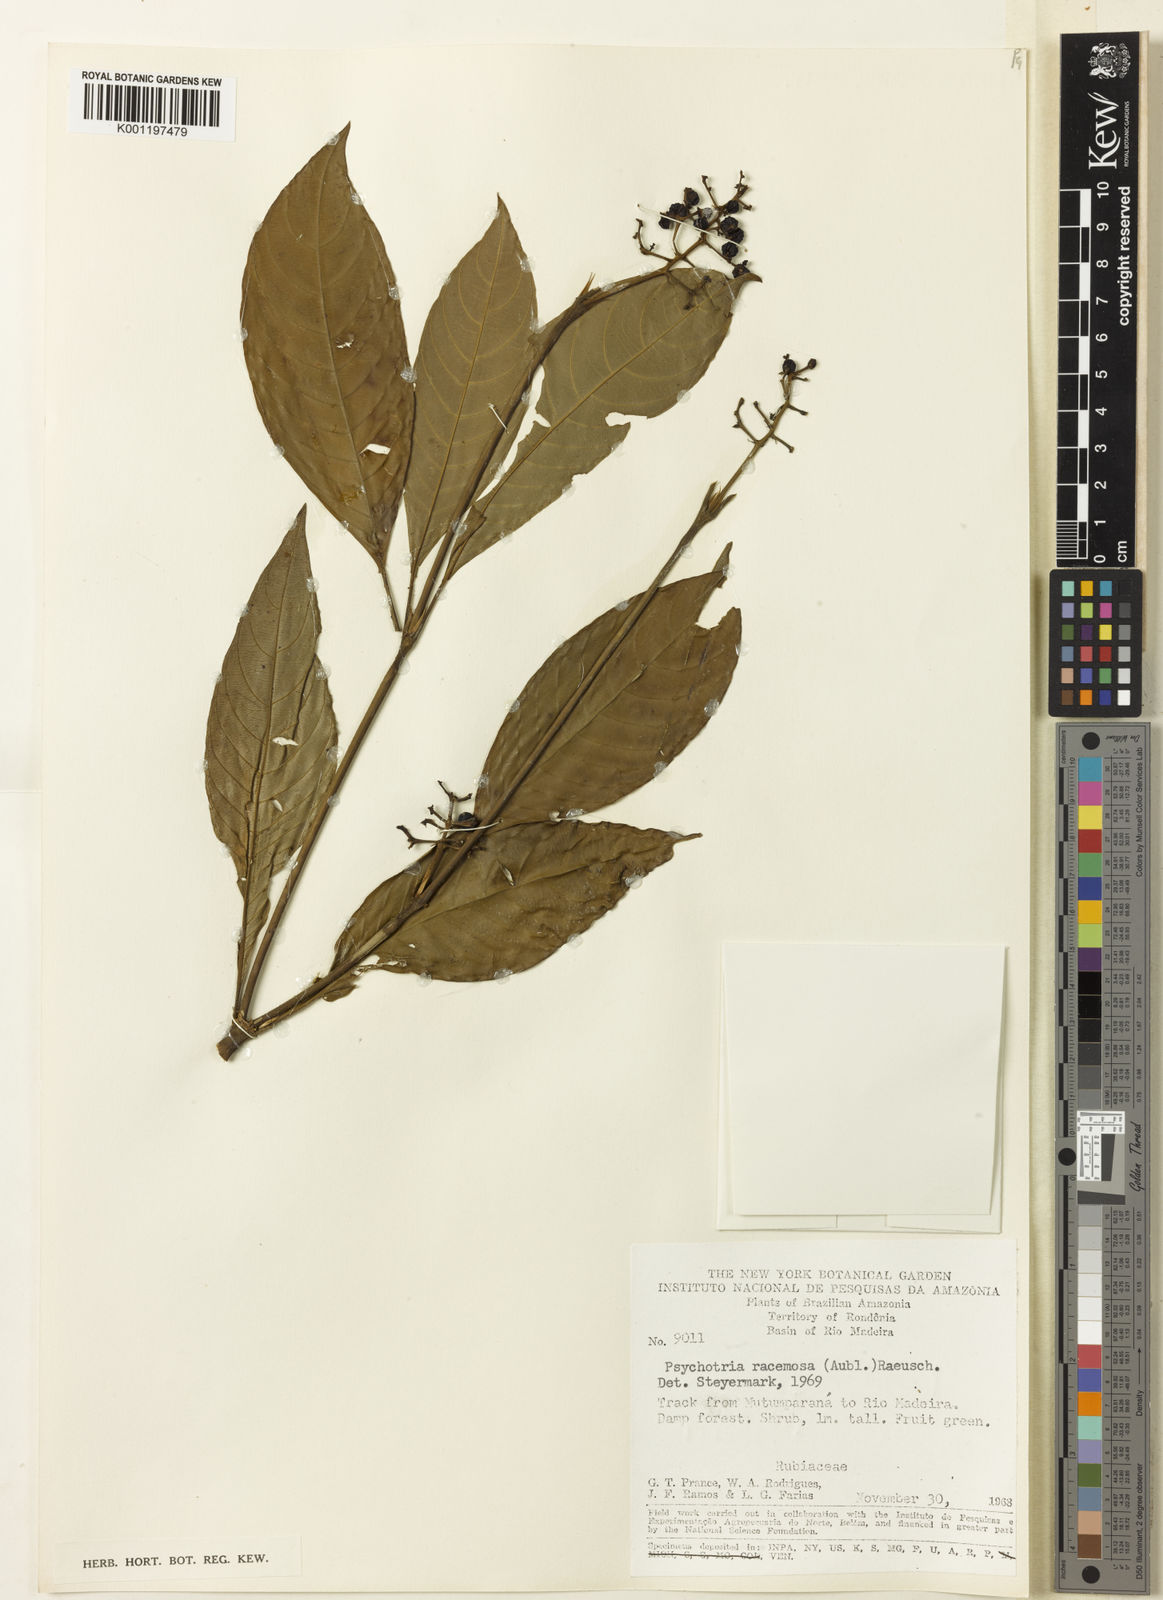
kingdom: Plantae
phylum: Tracheophyta
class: Magnoliopsida
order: Gentianales
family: Rubiaceae
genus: Palicourea
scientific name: Palicourea racemosa
